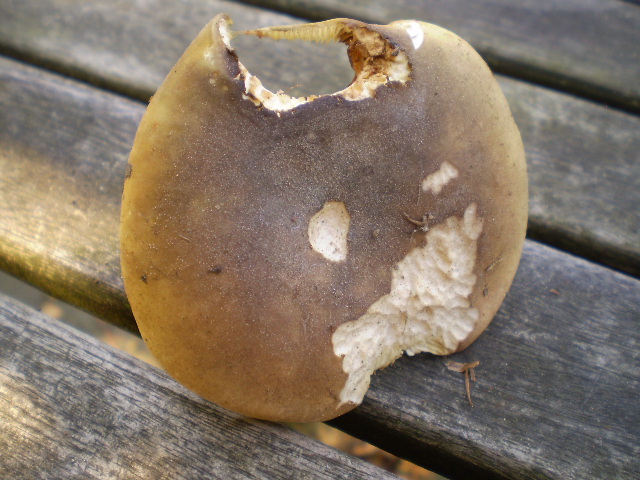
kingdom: Fungi
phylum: Basidiomycota
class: Agaricomycetes
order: Russulales
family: Russulaceae
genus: Russula
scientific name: Russula heterophylla
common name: gaffelbladet skørhat
